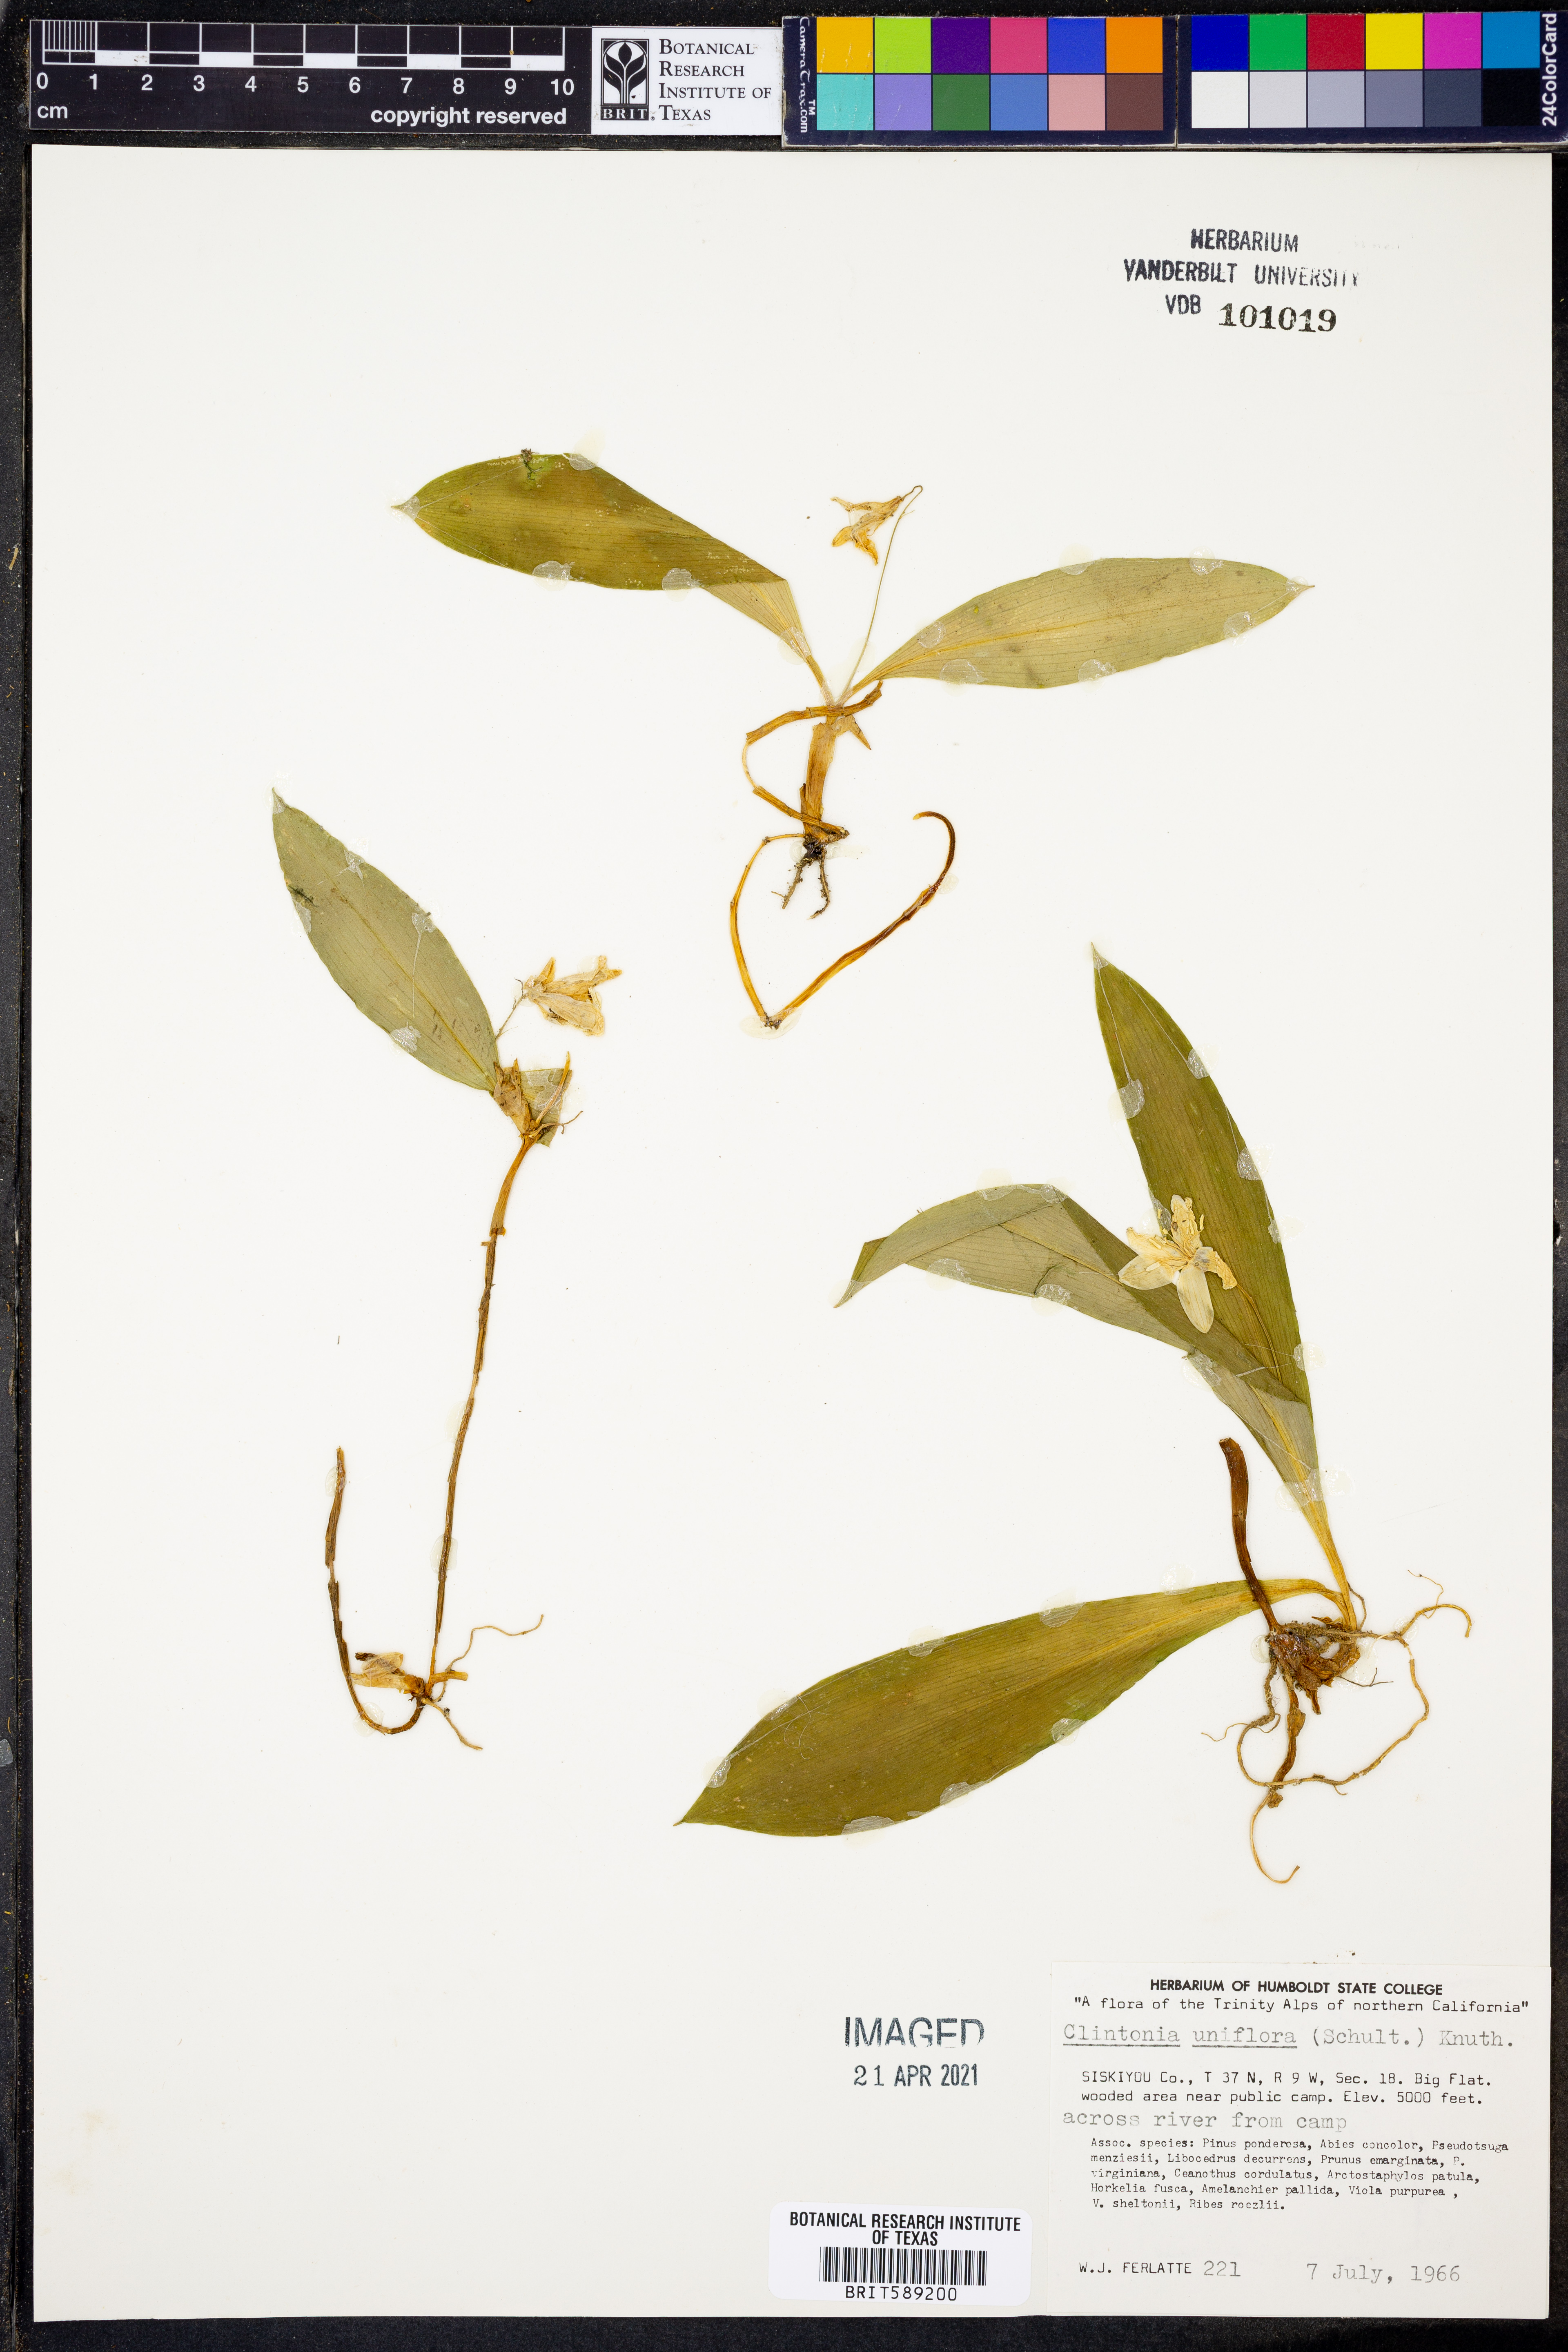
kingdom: Plantae
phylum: Tracheophyta
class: Liliopsida
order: Liliales
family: Liliaceae
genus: Clintonia
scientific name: Clintonia uniflora
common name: Queen's cup
